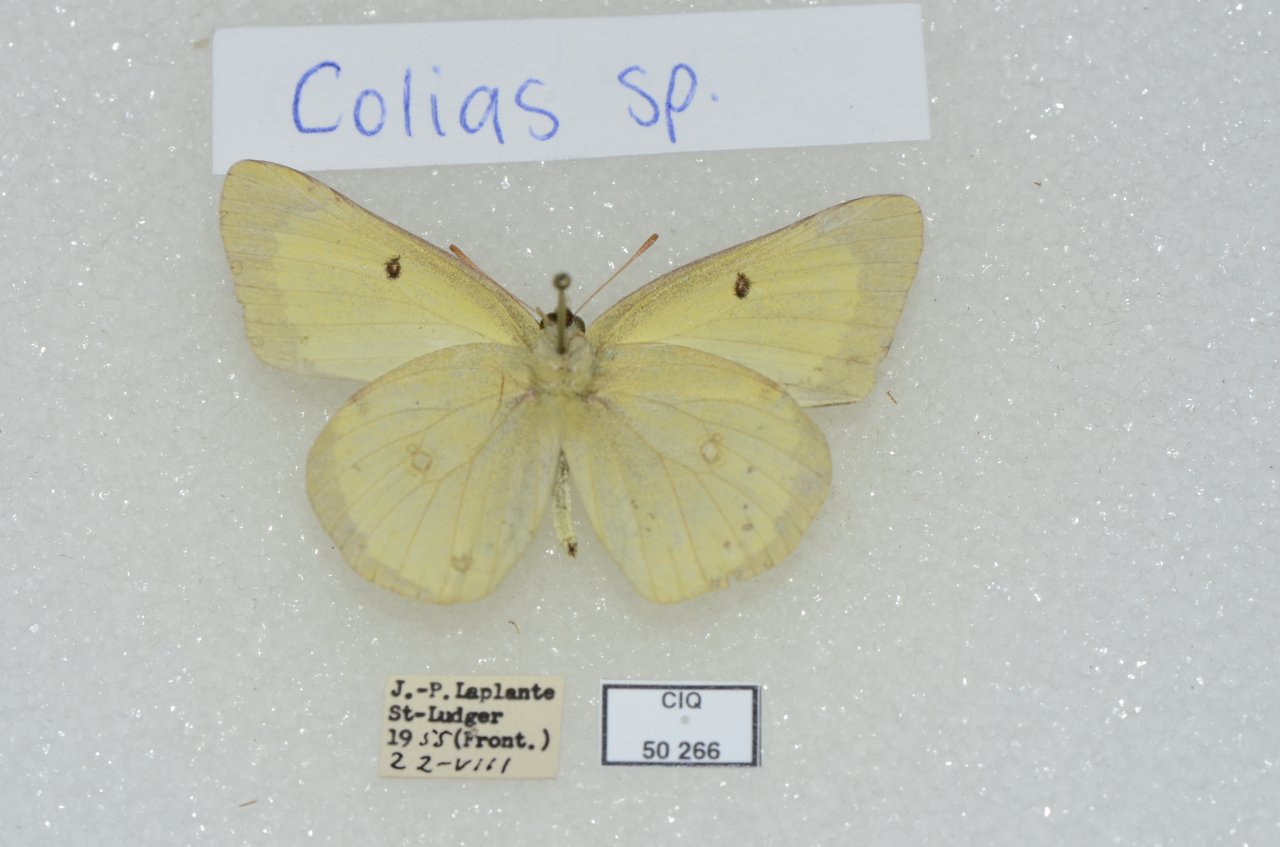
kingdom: Animalia
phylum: Arthropoda
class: Insecta
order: Lepidoptera
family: Pieridae
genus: Colias
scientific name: Colias interior
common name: Pink-edged Sulphur
